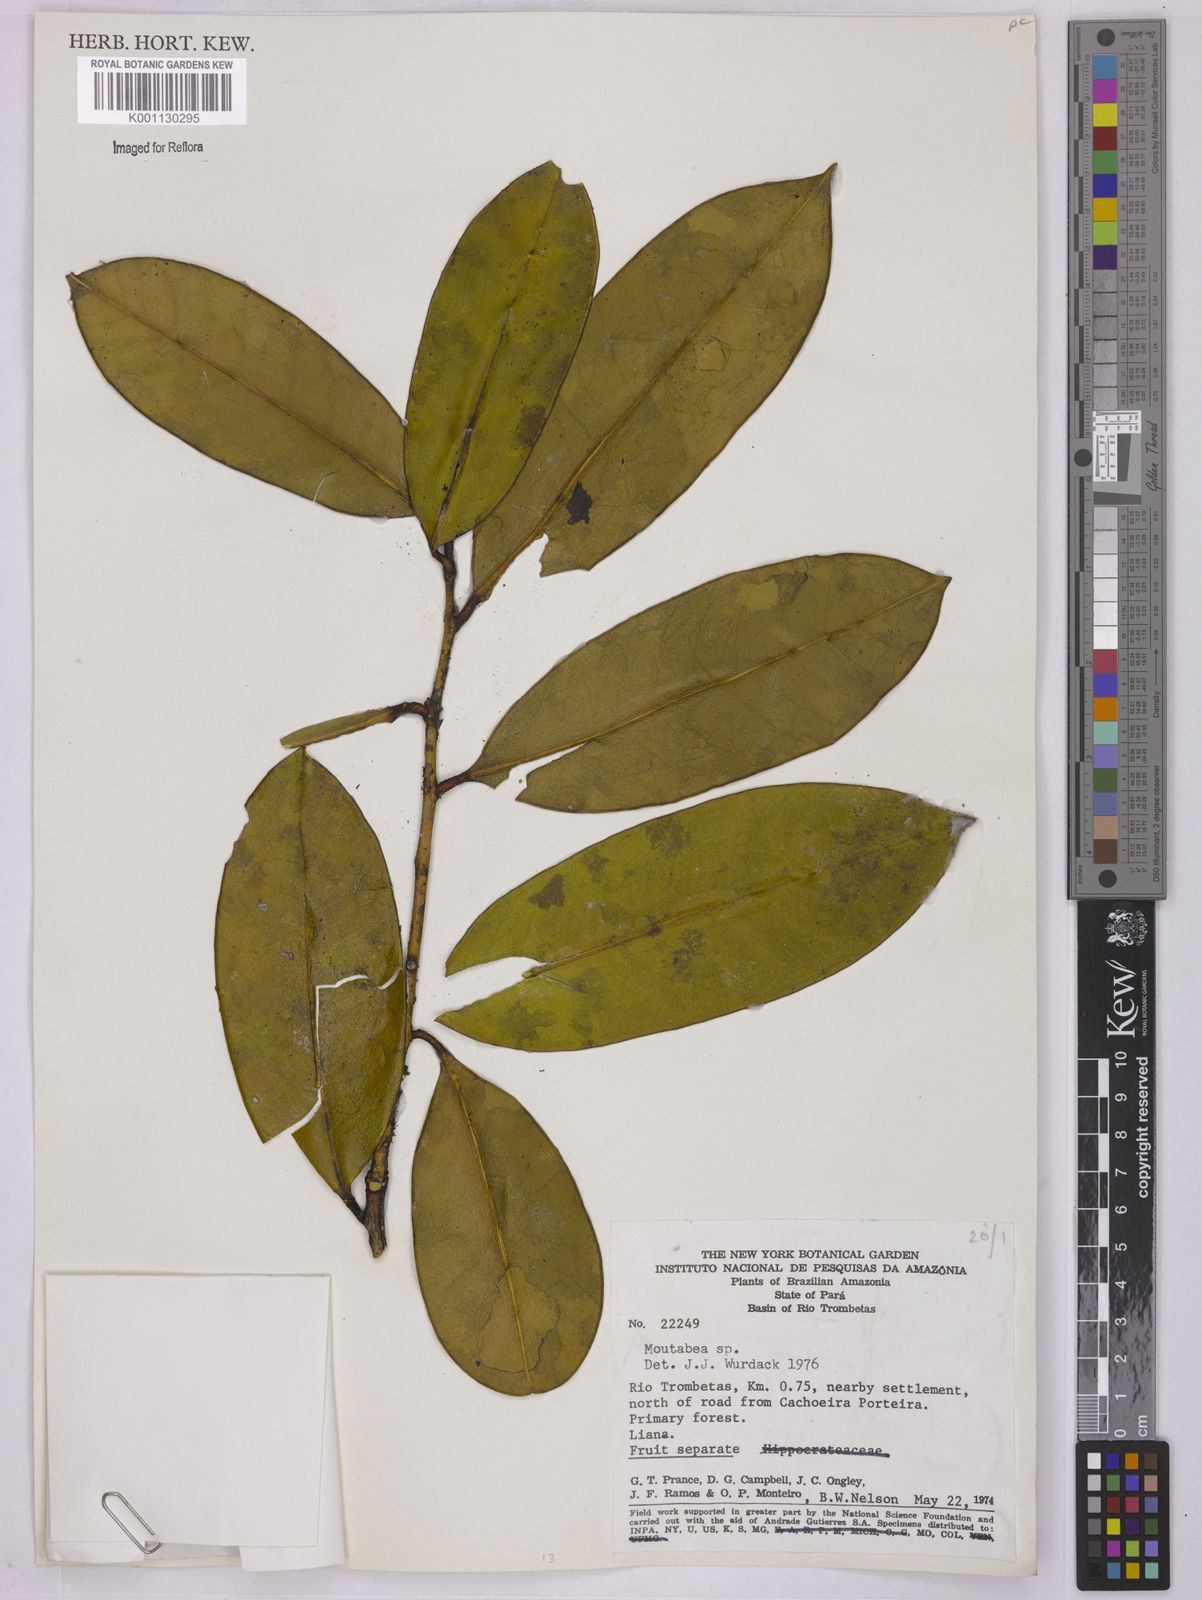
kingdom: Plantae
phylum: Tracheophyta
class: Magnoliopsida
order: Fabales
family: Polygalaceae
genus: Moutabea
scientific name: Moutabea
